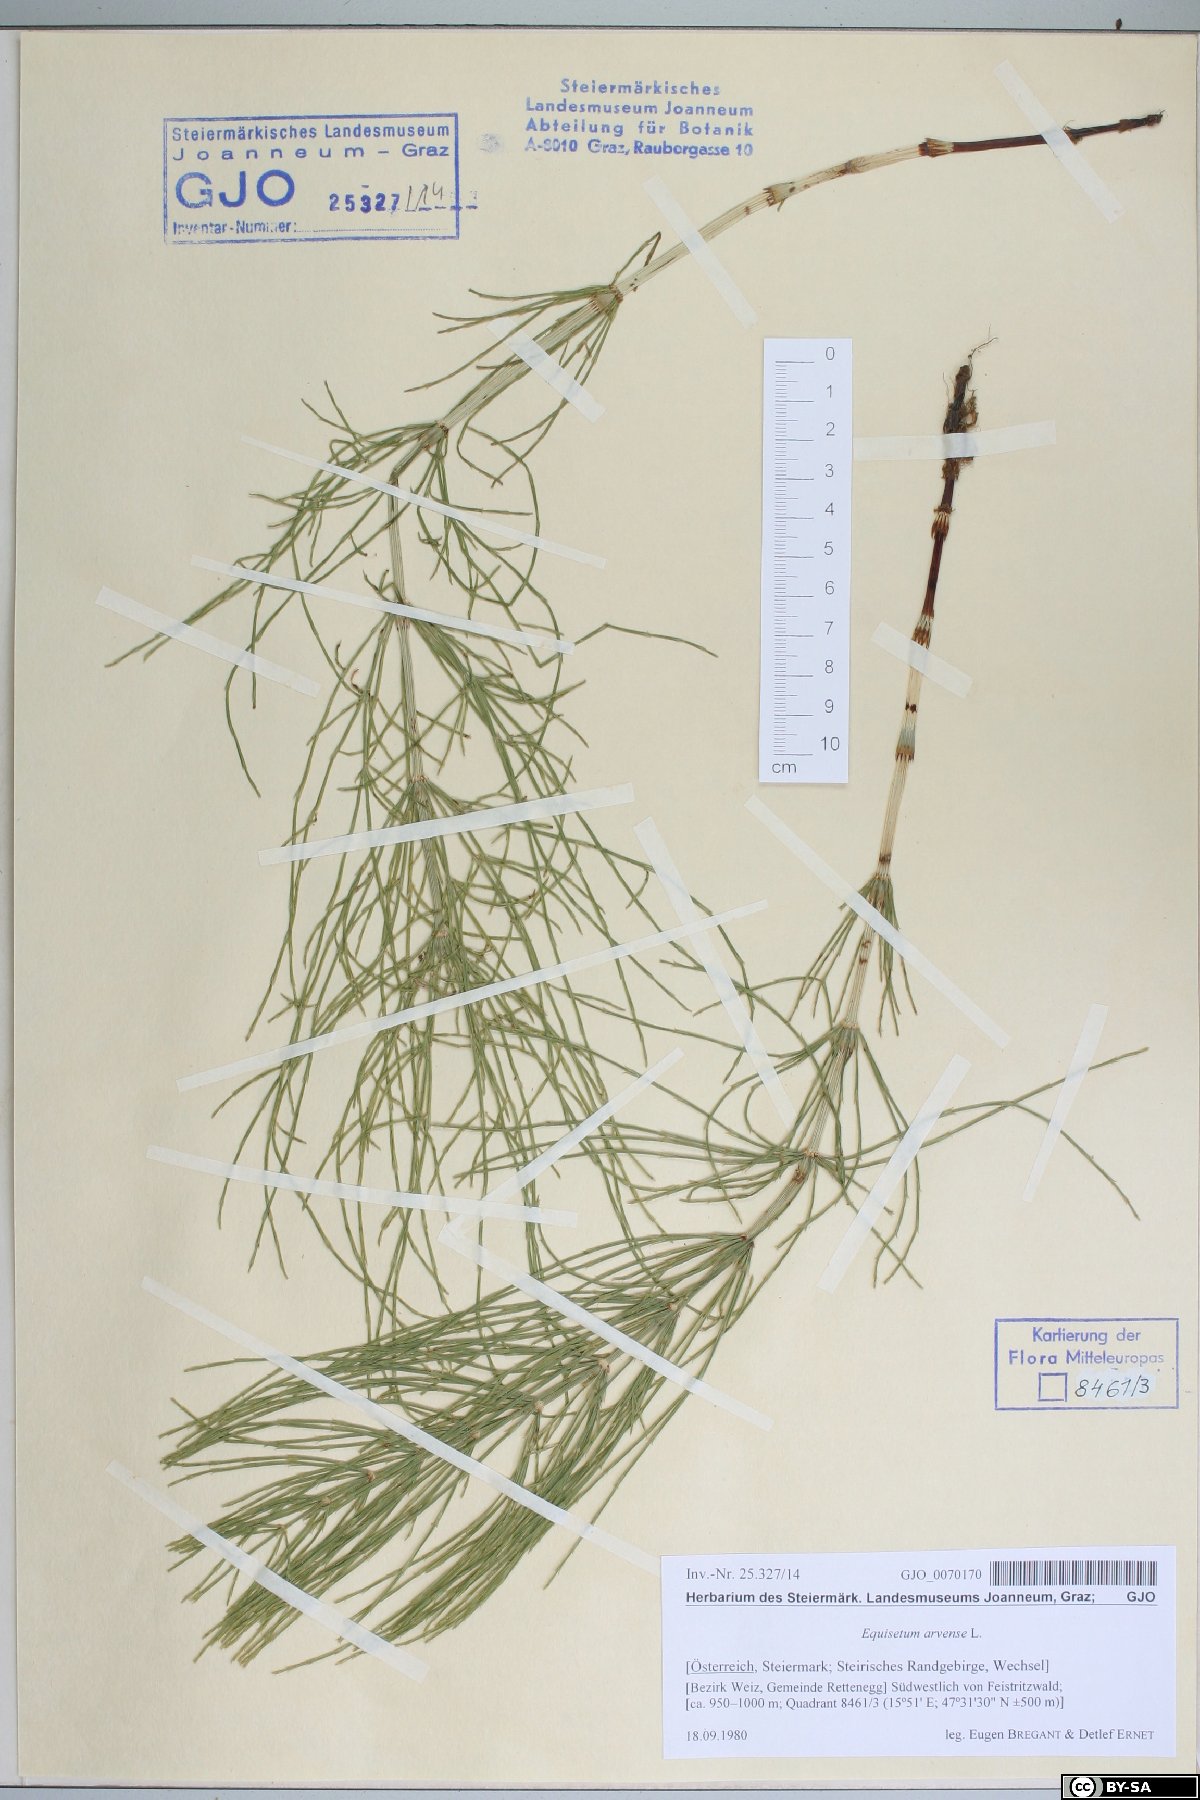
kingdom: Plantae
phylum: Tracheophyta
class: Polypodiopsida
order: Equisetales
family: Equisetaceae
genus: Equisetum
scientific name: Equisetum arvense
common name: Field horsetail
